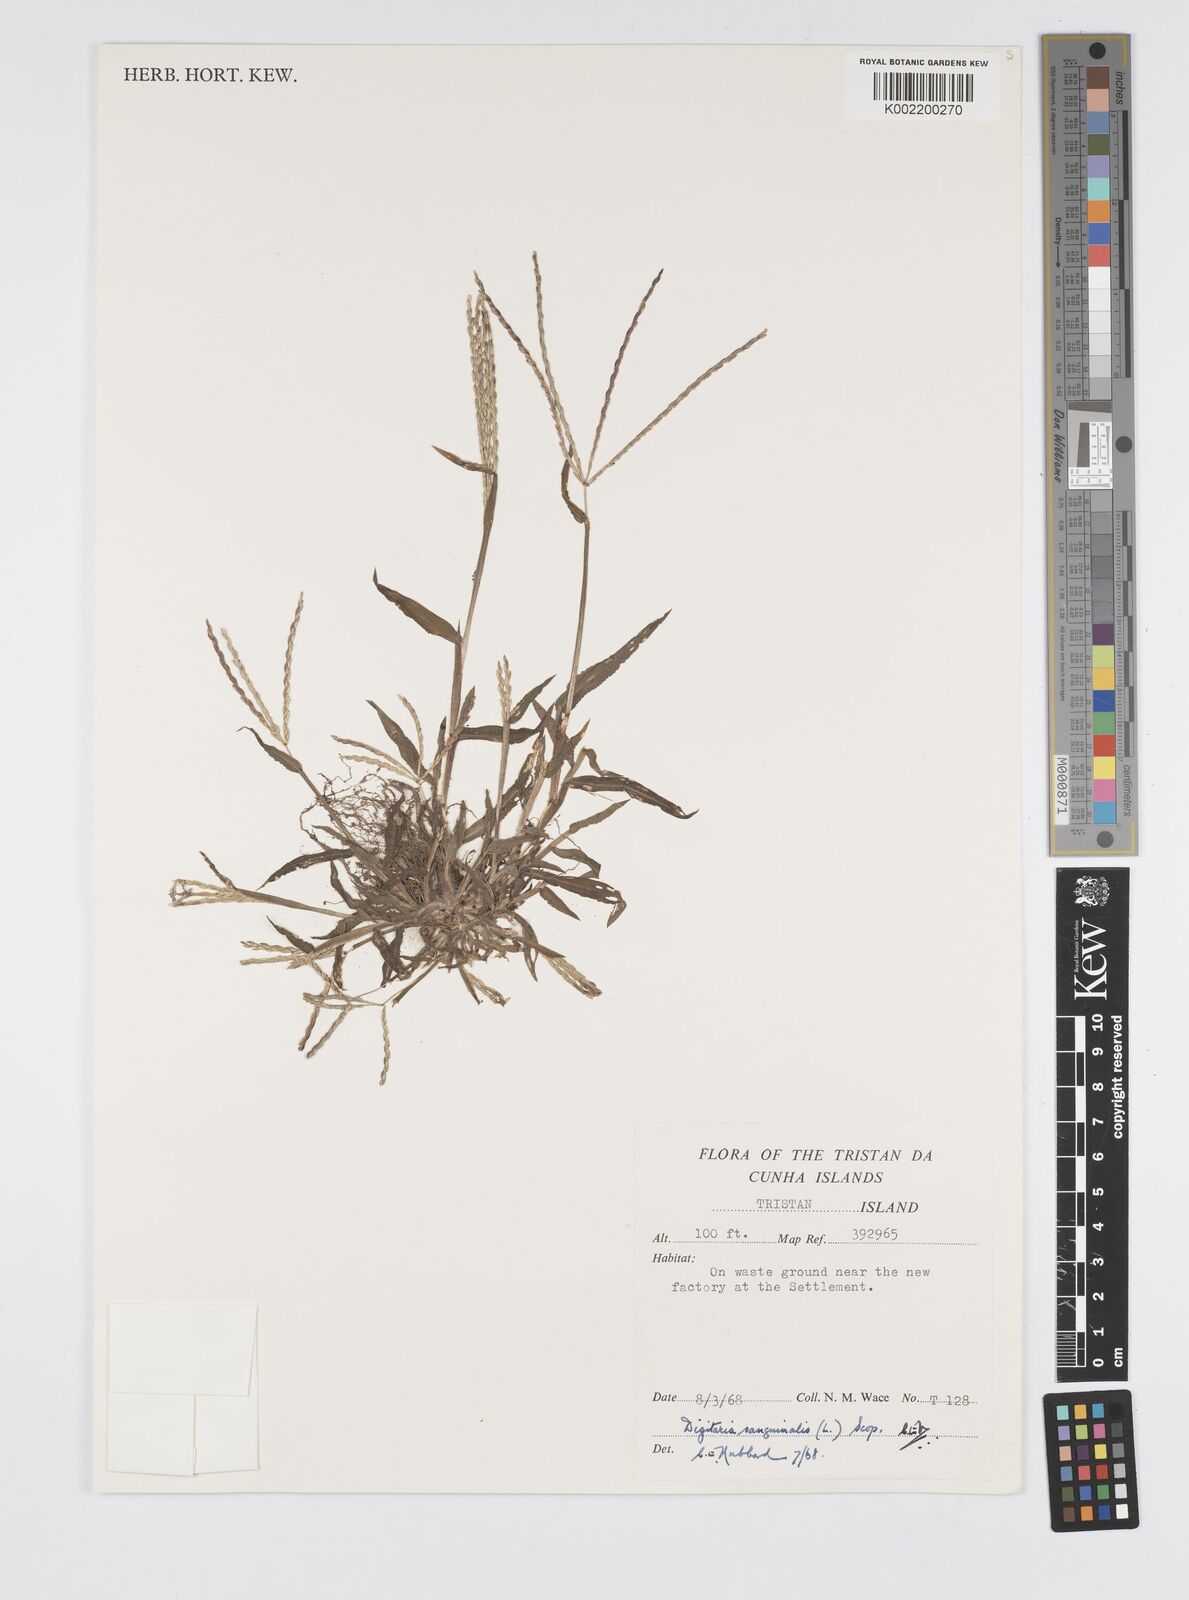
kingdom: Plantae
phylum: Tracheophyta
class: Liliopsida
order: Poales
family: Poaceae
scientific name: Poaceae
